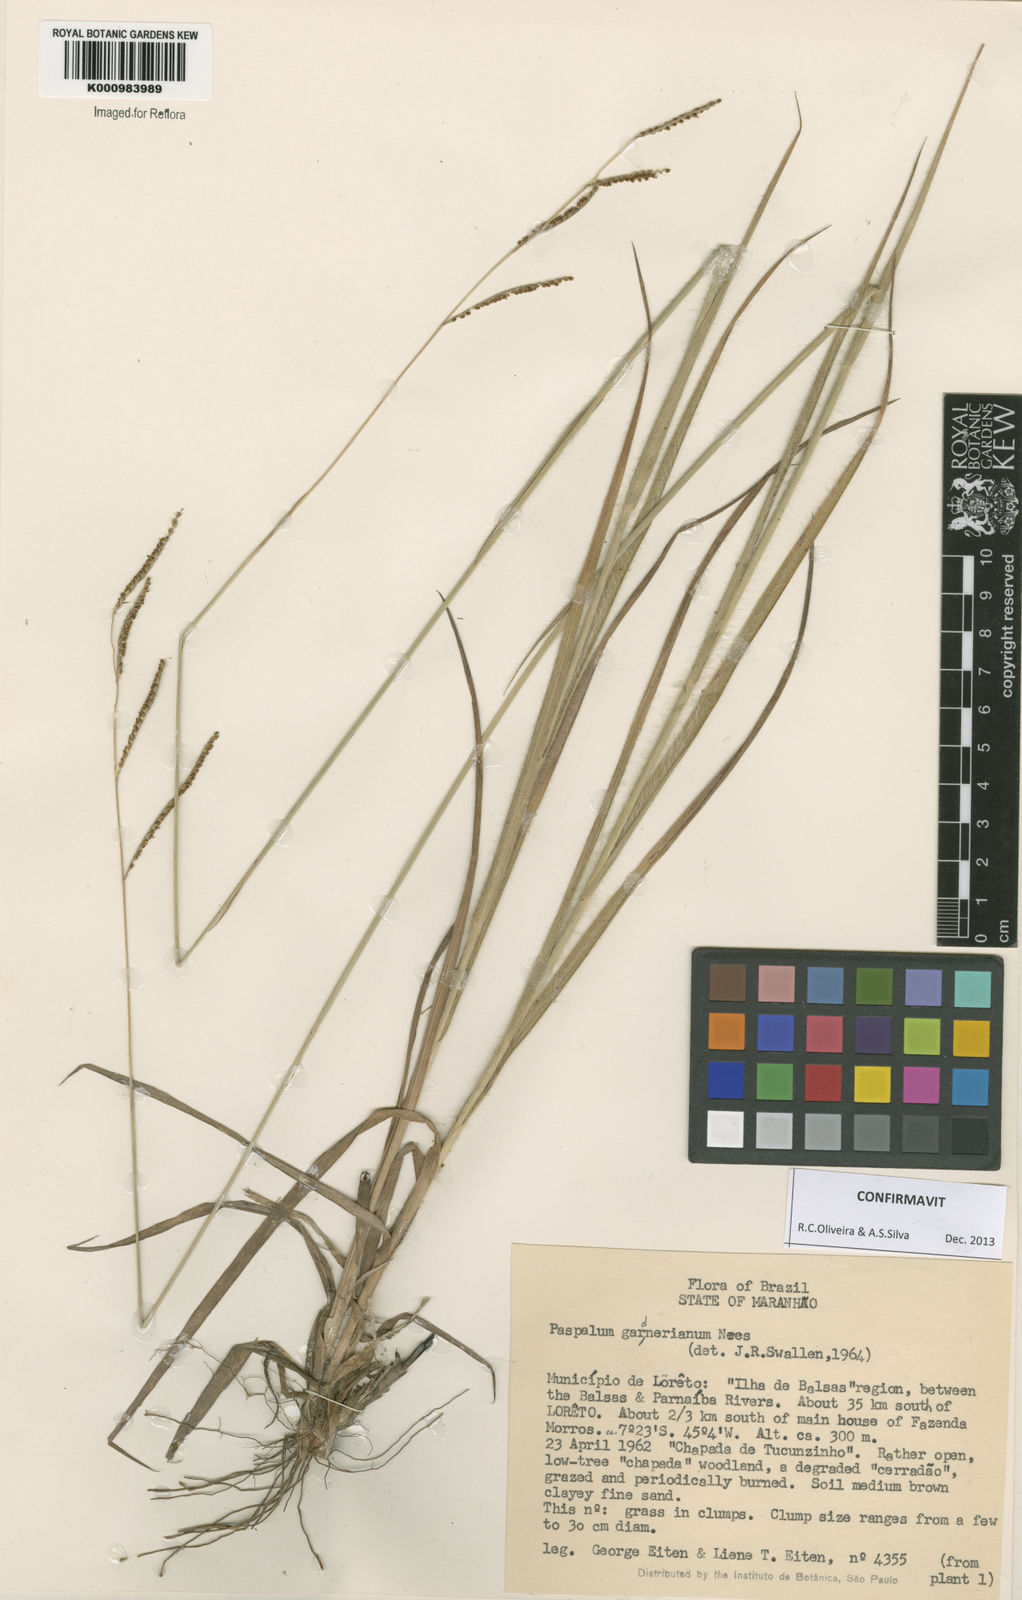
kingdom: Plantae
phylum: Tracheophyta
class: Liliopsida
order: Poales
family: Poaceae
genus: Paspalum
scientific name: Paspalum gardnerianum
